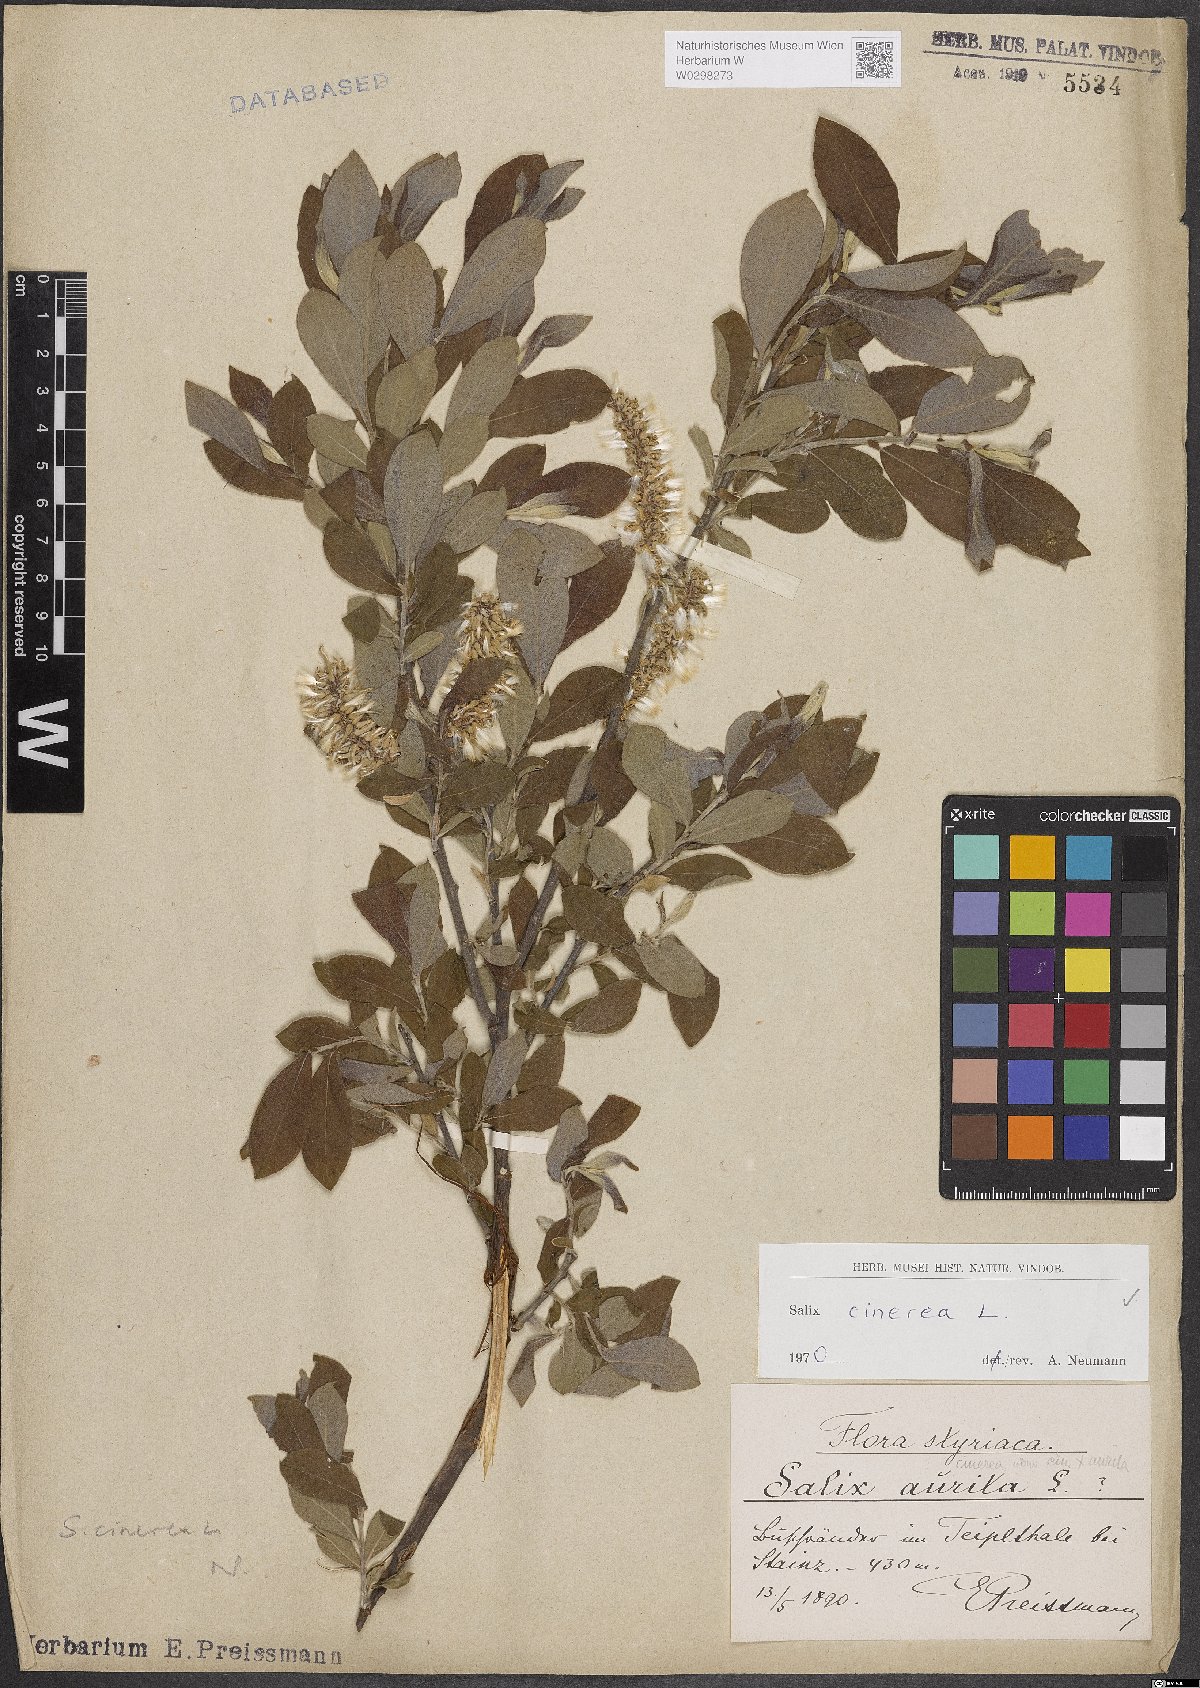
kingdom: Plantae
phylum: Tracheophyta
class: Magnoliopsida
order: Malpighiales
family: Salicaceae
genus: Salix
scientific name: Salix cinerea
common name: Common sallow
